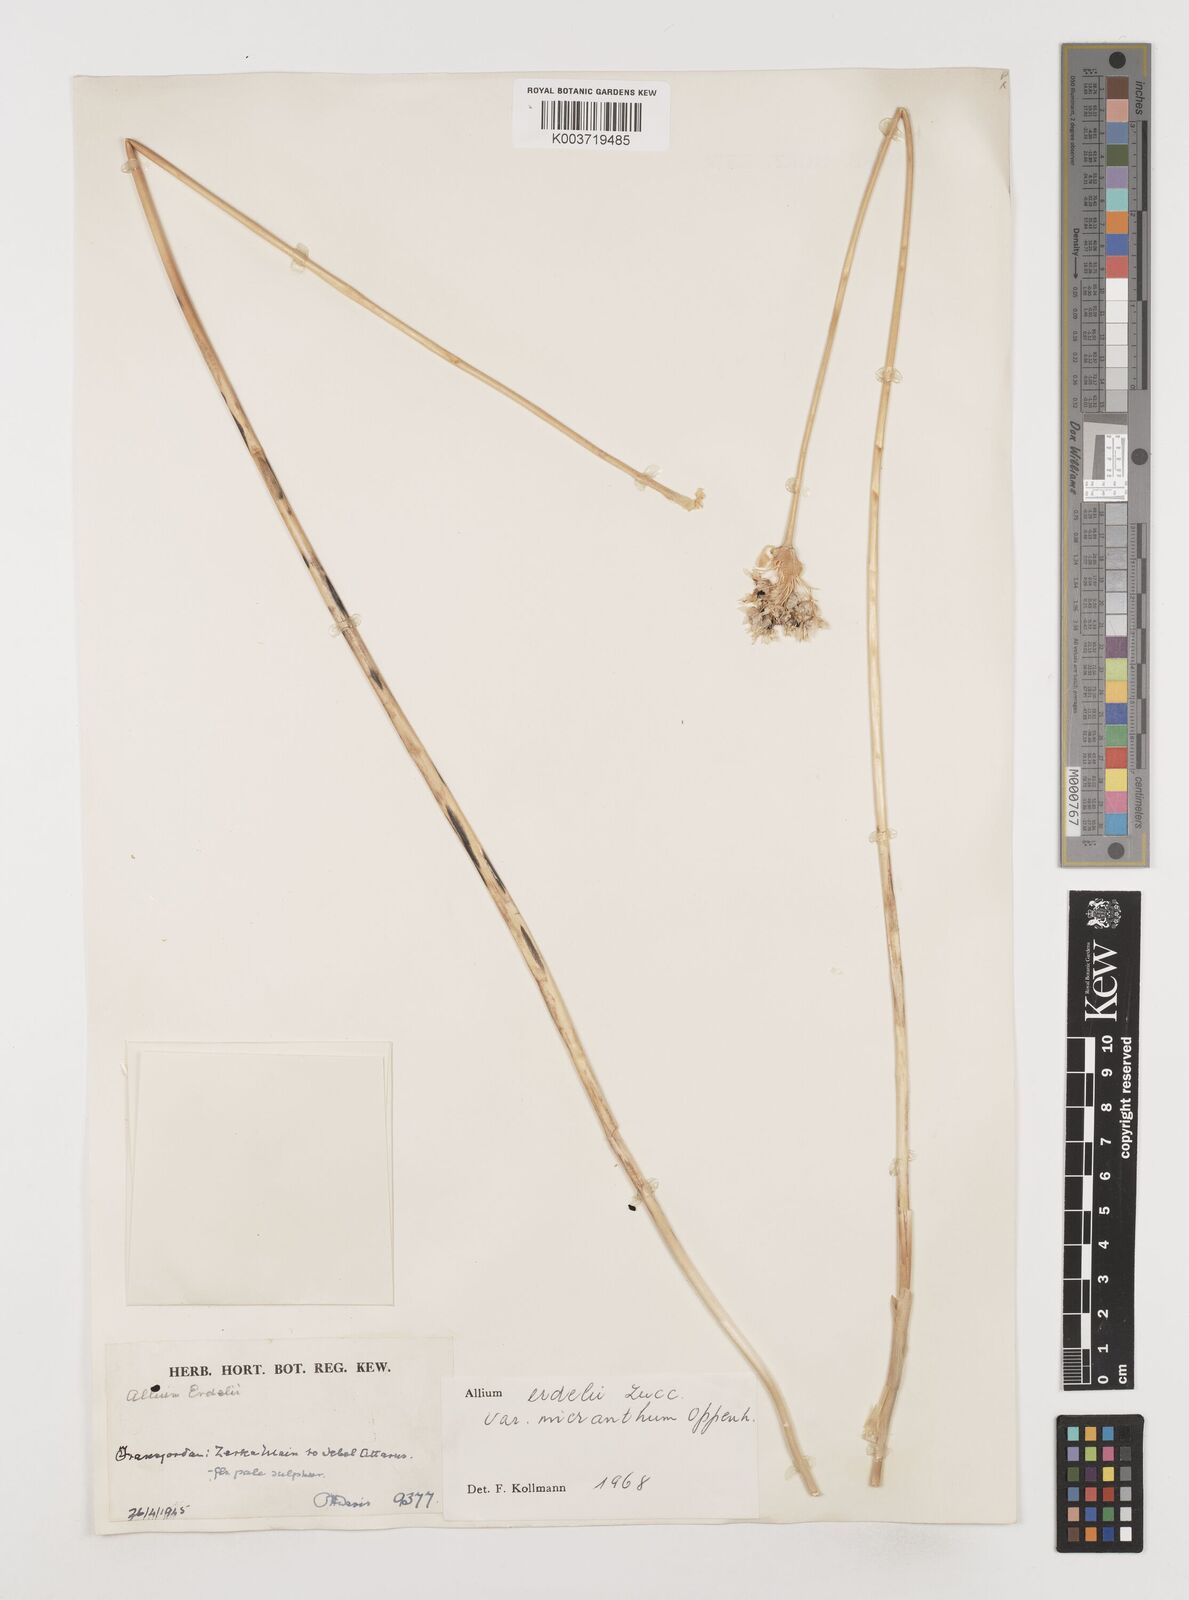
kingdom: Plantae
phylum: Tracheophyta
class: Liliopsida
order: Asparagales
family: Amaryllidaceae
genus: Allium
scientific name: Allium orientale
